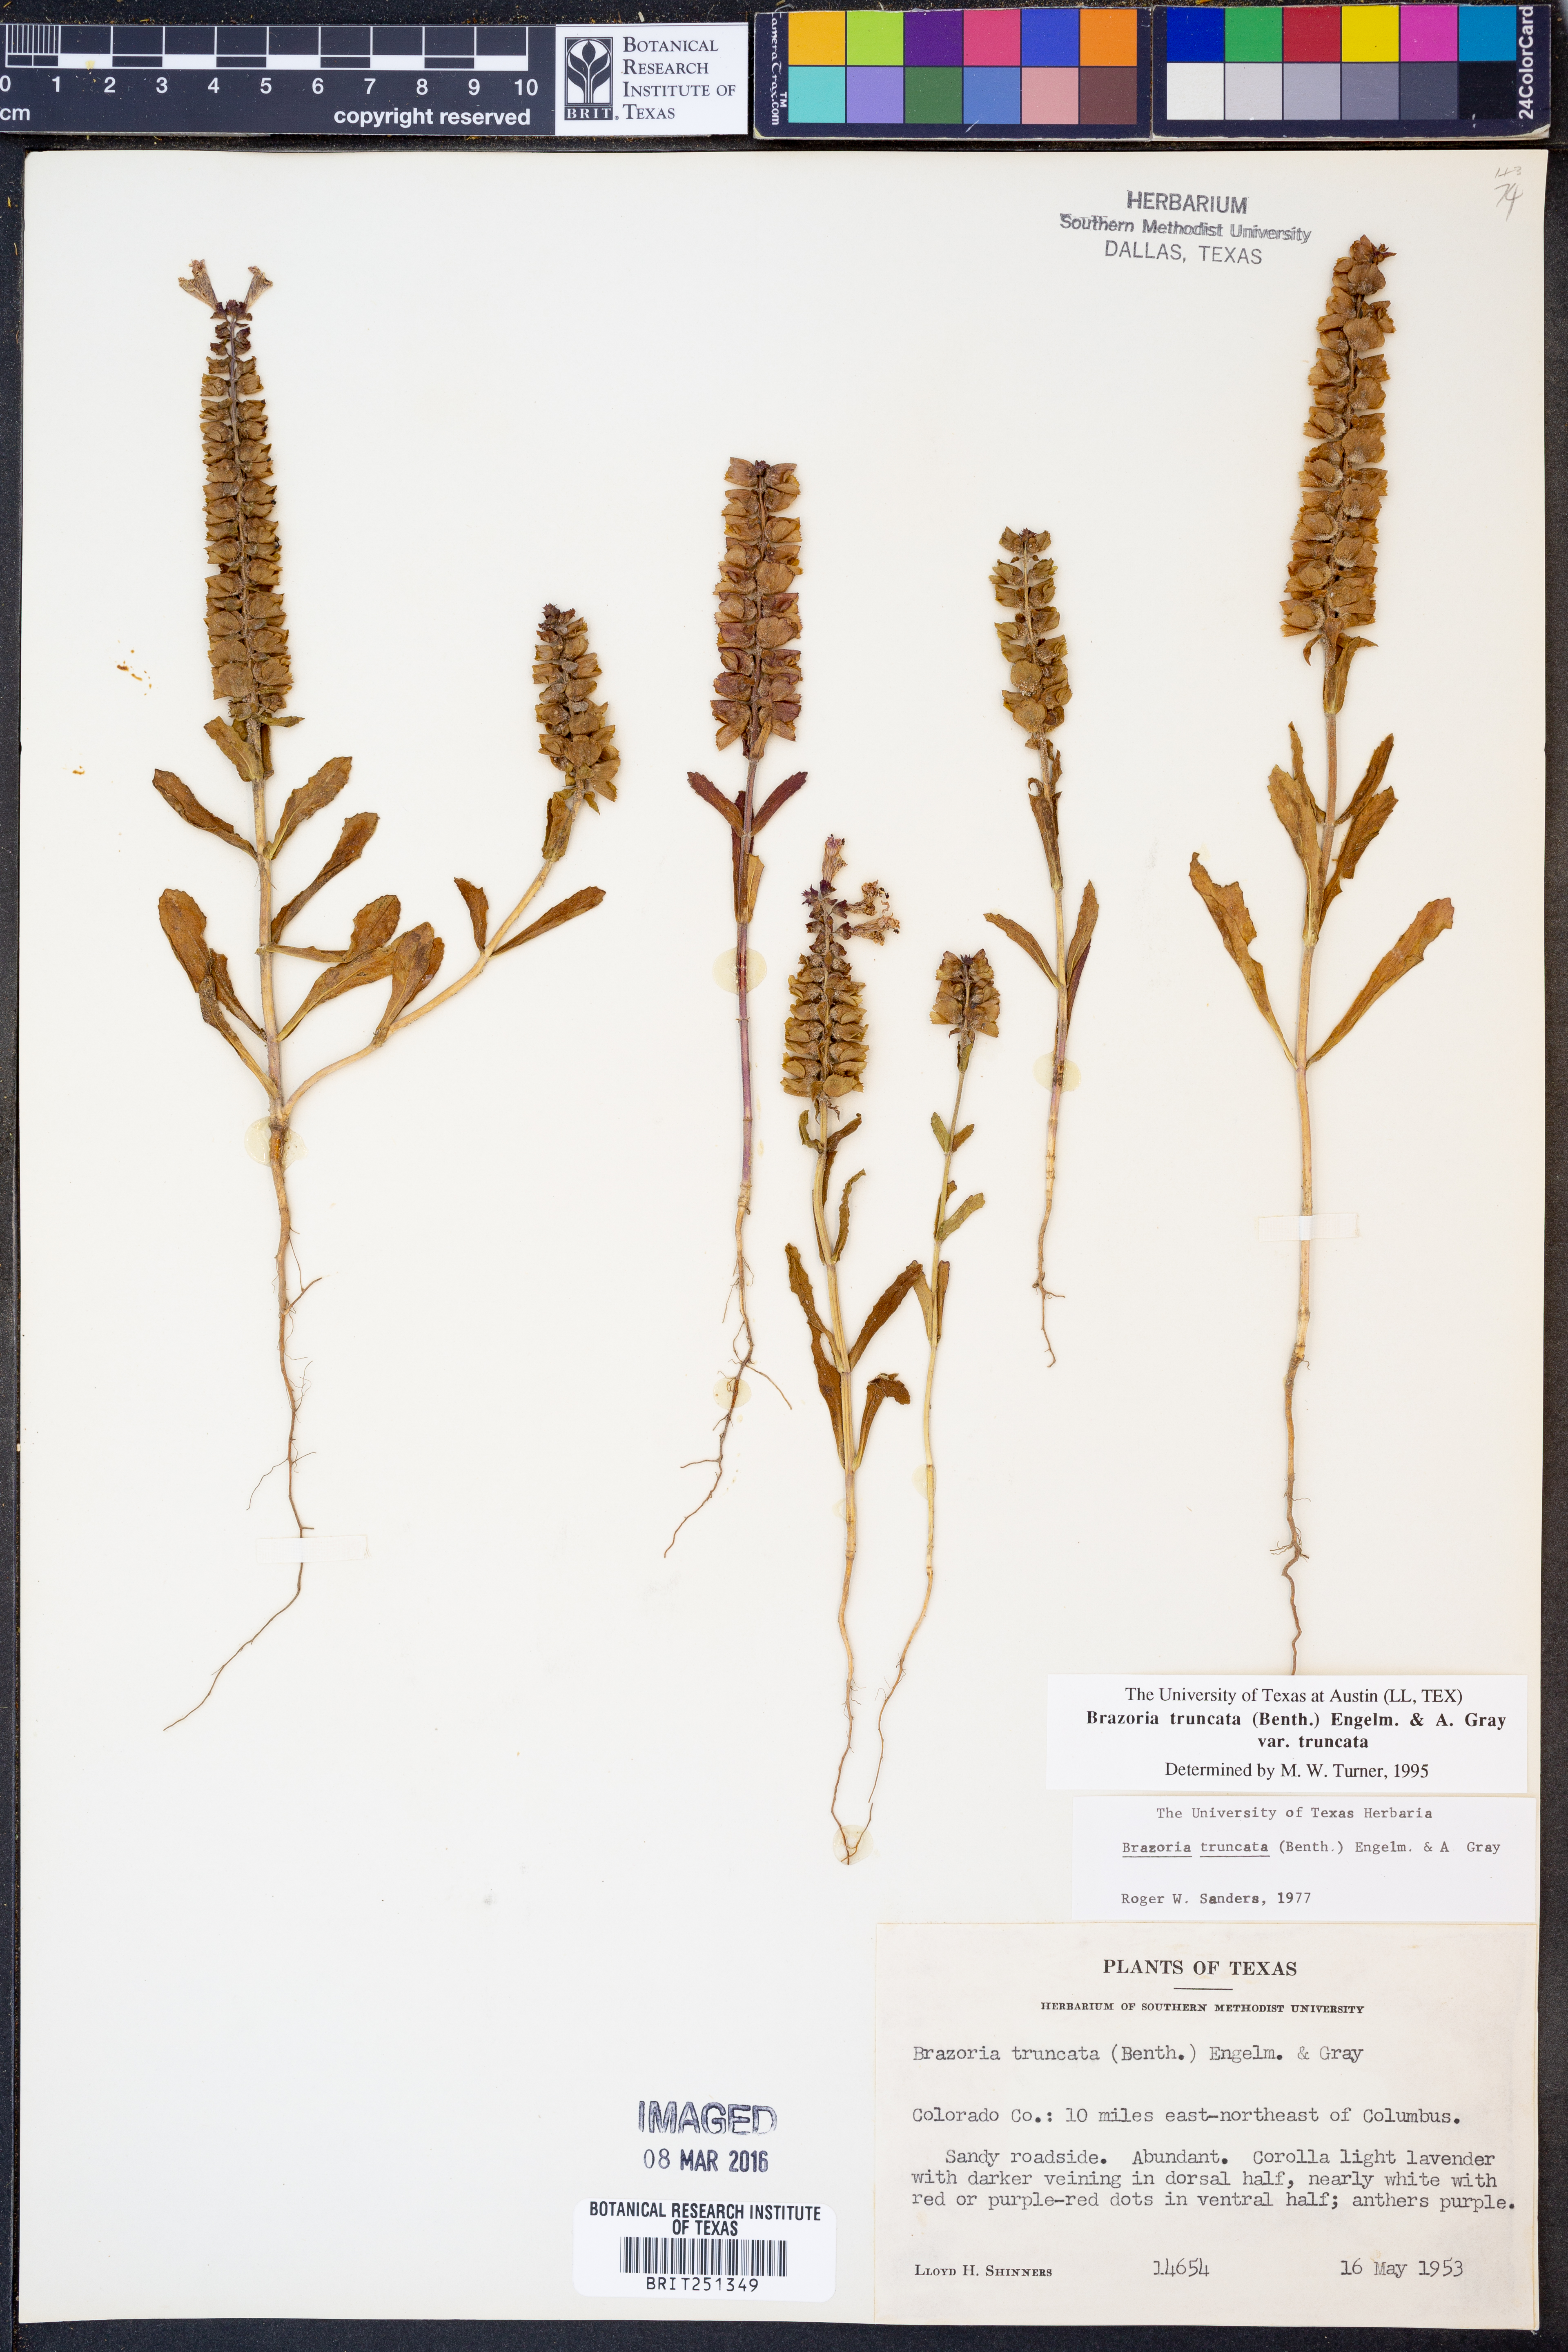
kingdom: Plantae
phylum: Tracheophyta
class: Magnoliopsida
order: Lamiales
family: Lamiaceae
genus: Brazoria
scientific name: Brazoria truncata
